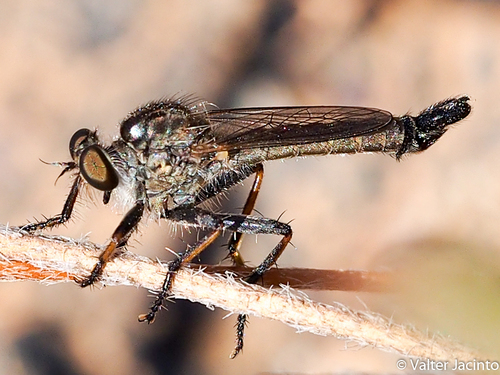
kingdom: Animalia
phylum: Arthropoda
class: Insecta
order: Diptera
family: Asilidae
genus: Machimus
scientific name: Machimus dasypygus
